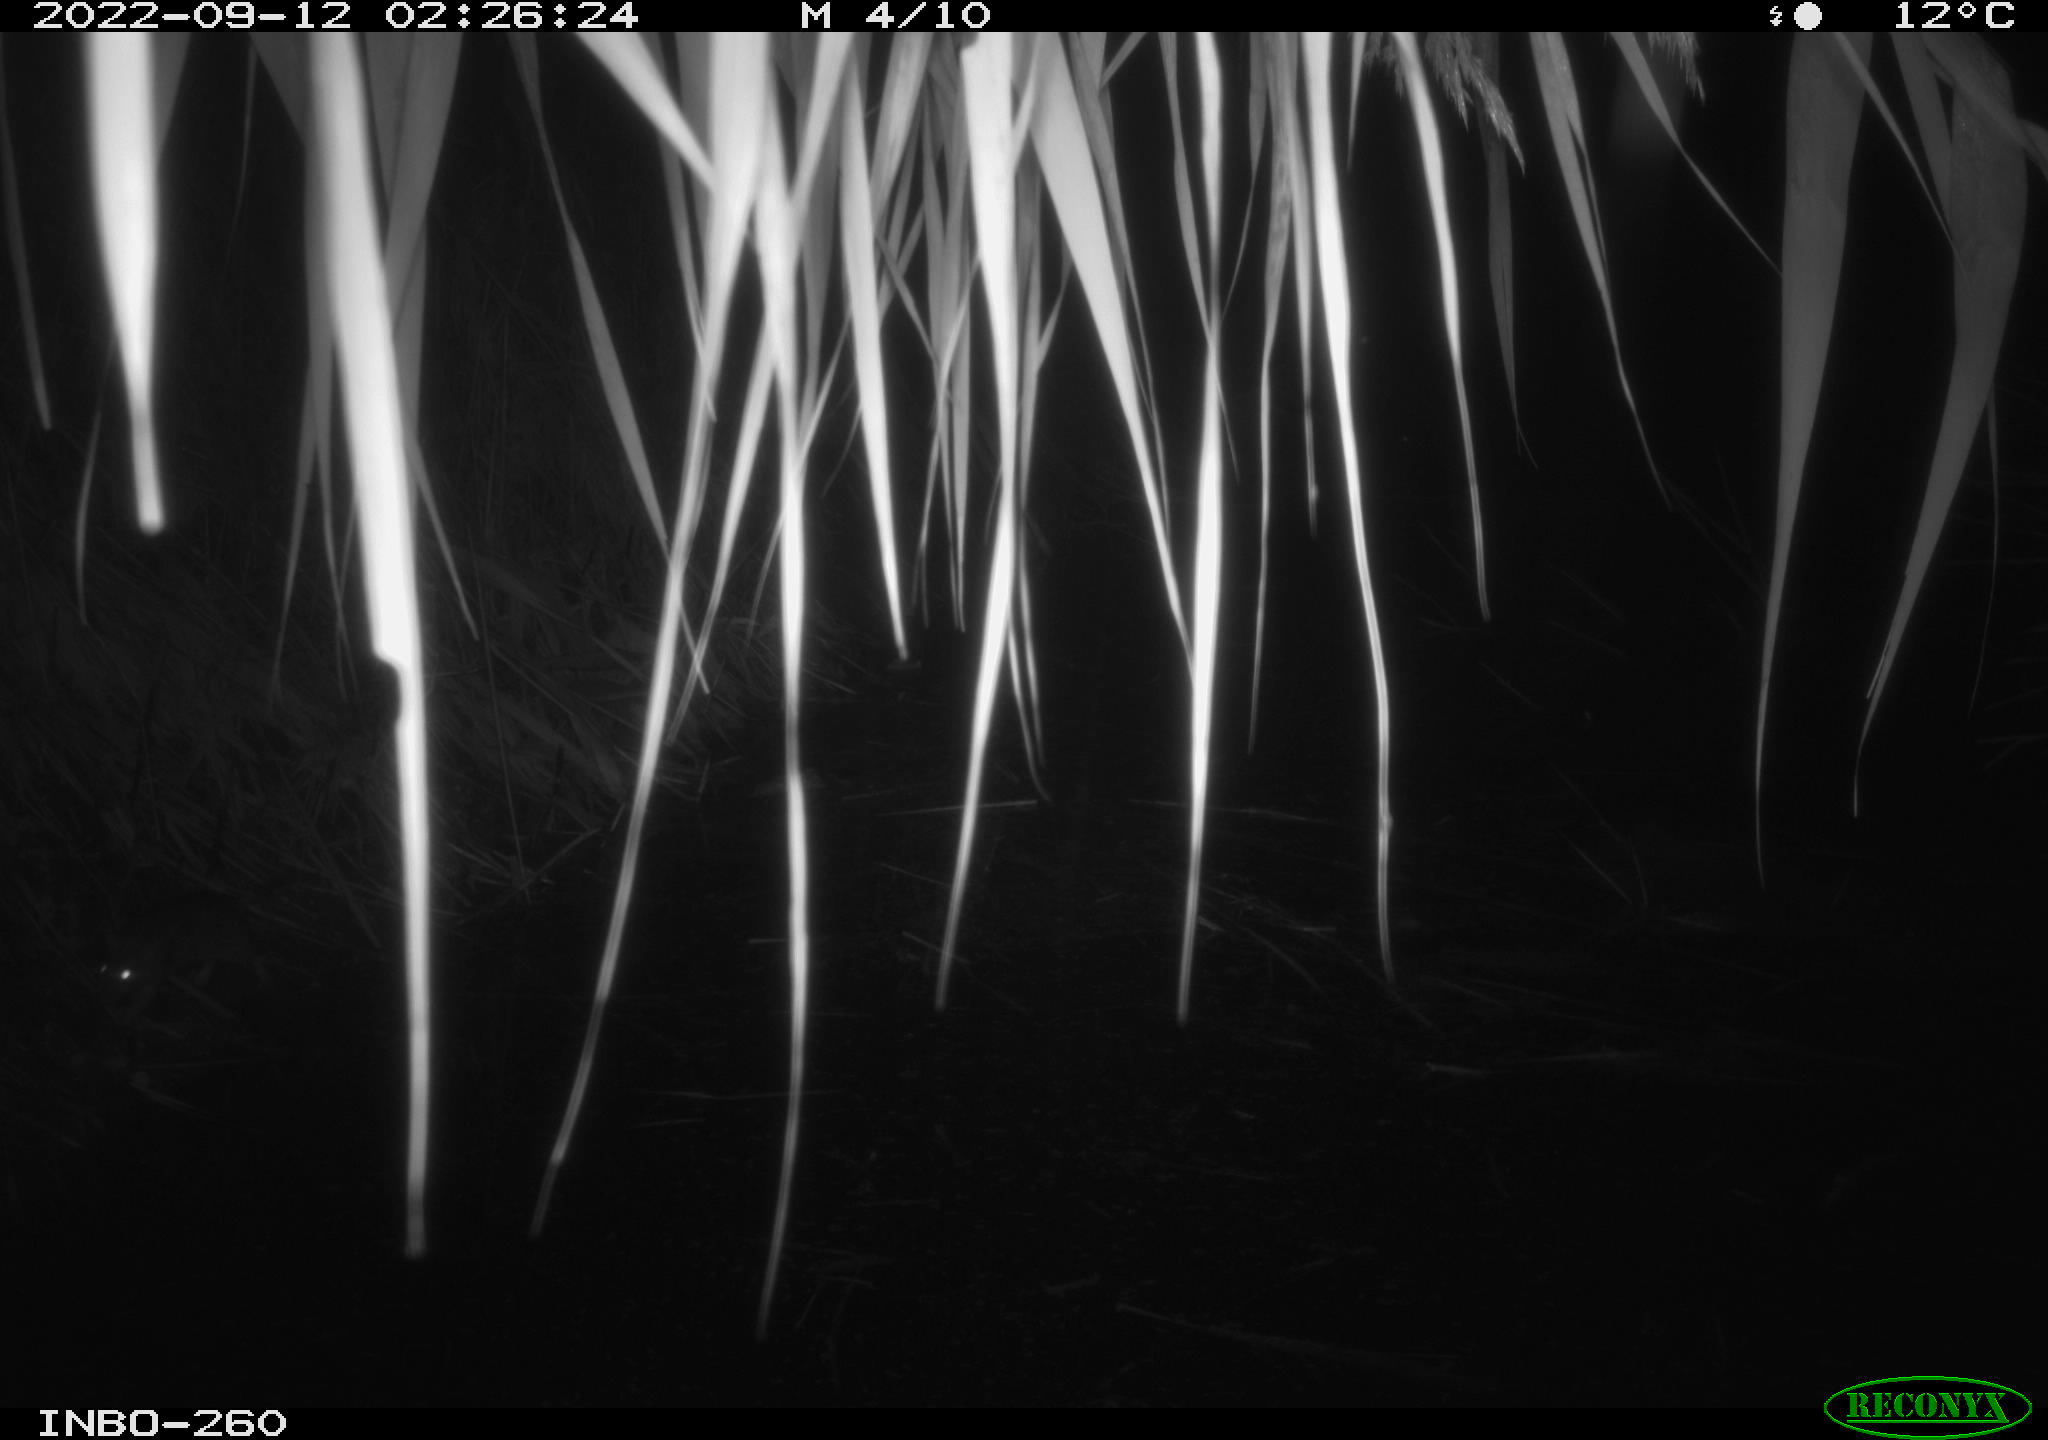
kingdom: Animalia
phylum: Chordata
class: Mammalia
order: Rodentia
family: Muridae
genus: Rattus
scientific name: Rattus norvegicus
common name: Brown rat
